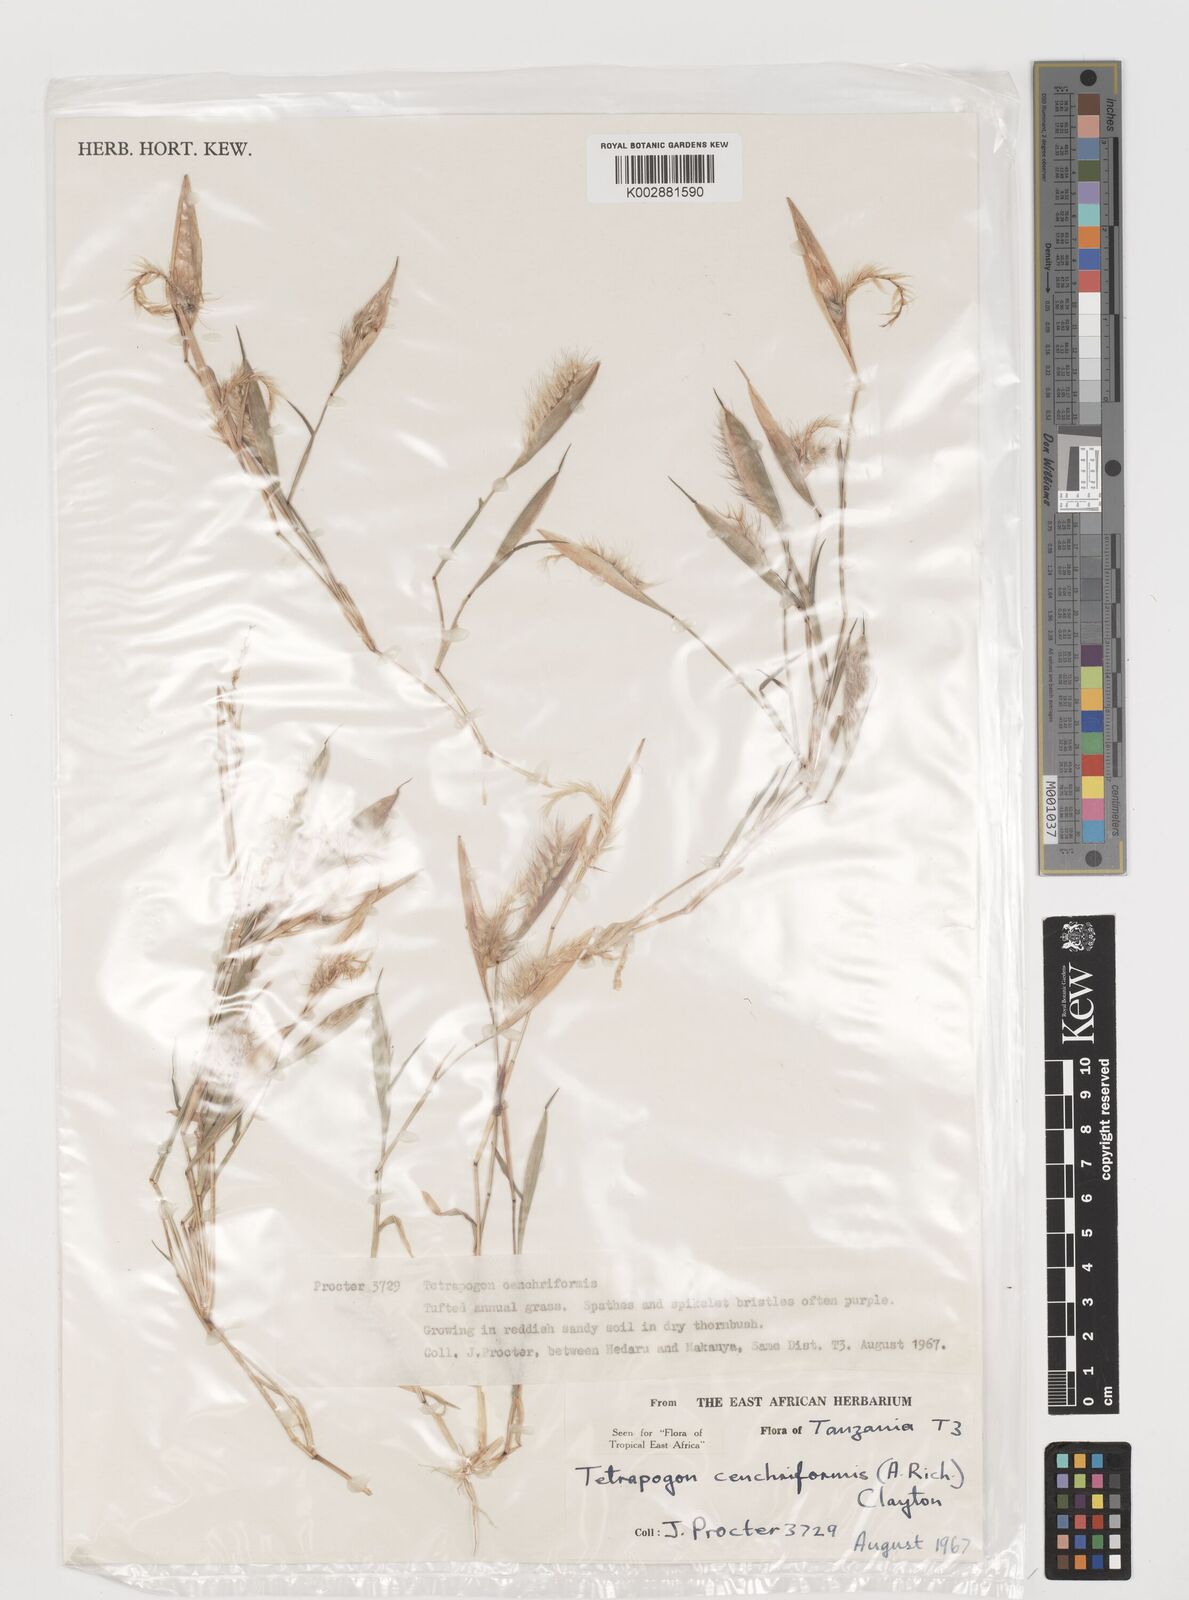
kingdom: Plantae
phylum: Tracheophyta
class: Liliopsida
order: Poales
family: Poaceae
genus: Tetrapogon
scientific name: Tetrapogon cenchriformis
